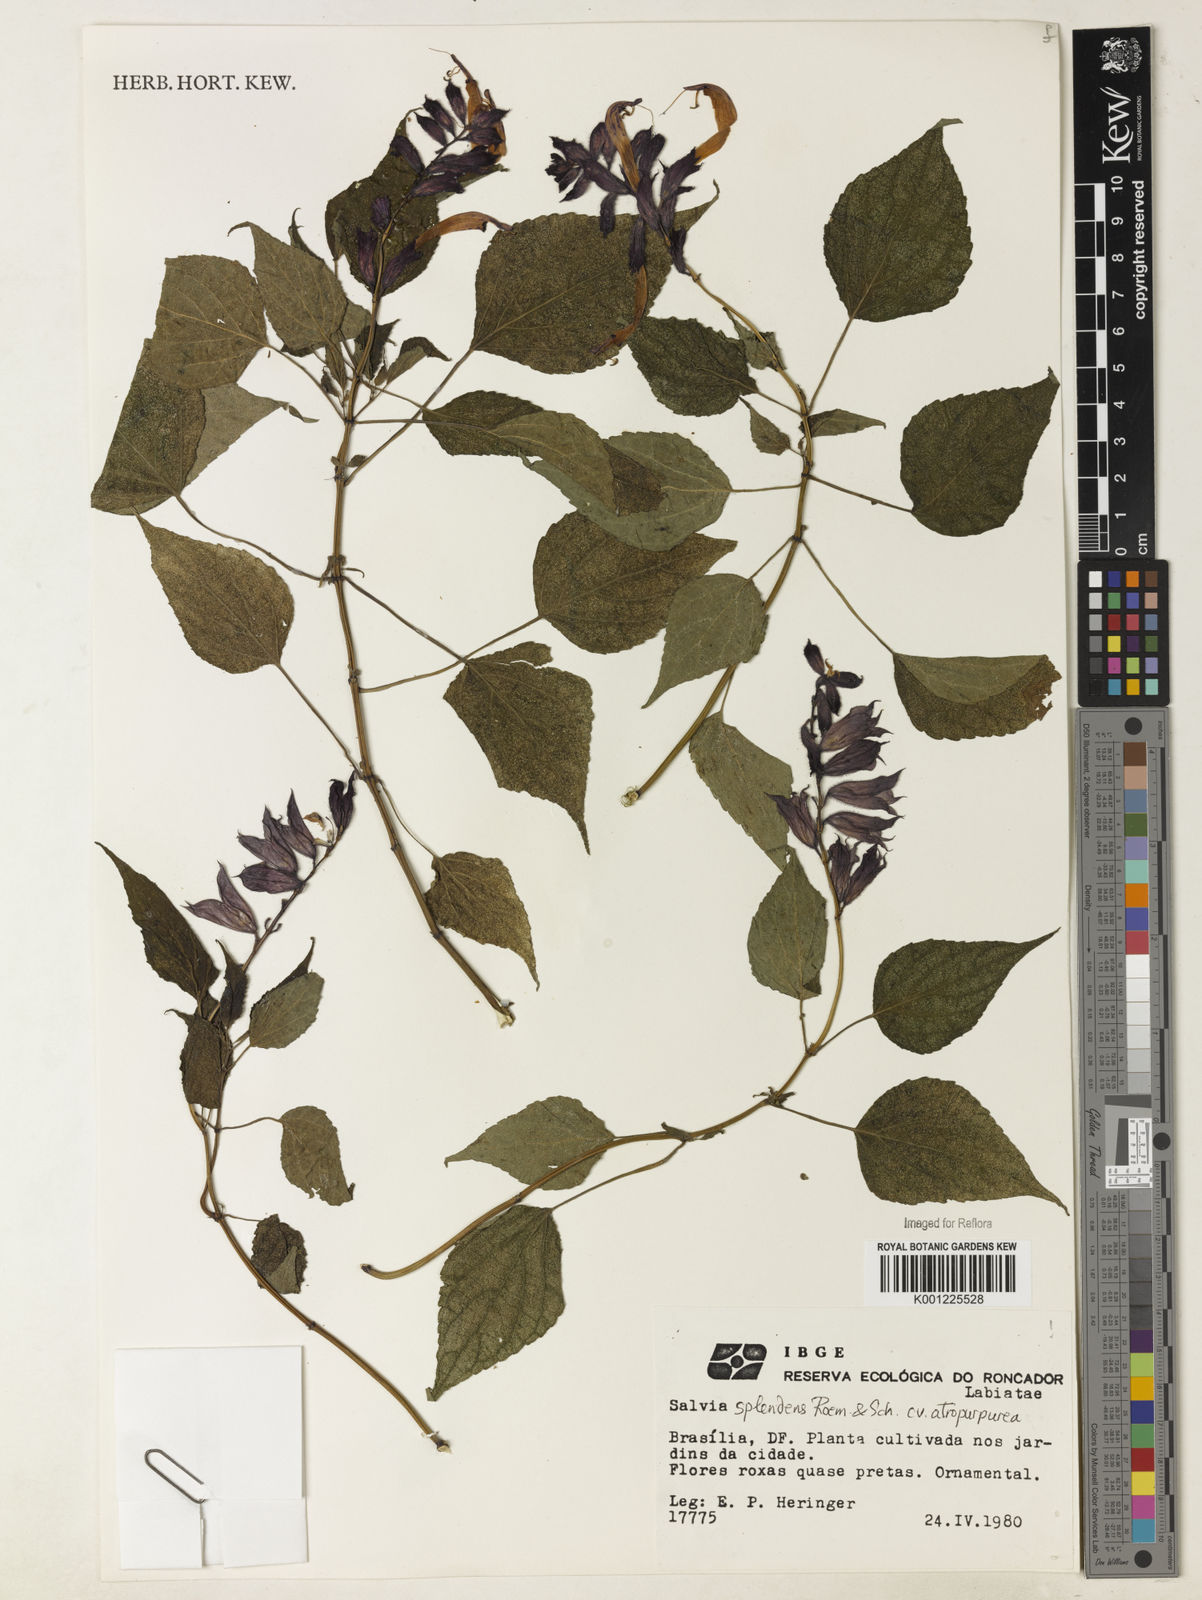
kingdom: Plantae
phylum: Tracheophyta
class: Magnoliopsida
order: Lamiales
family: Lamiaceae
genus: Salvia
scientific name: Salvia
